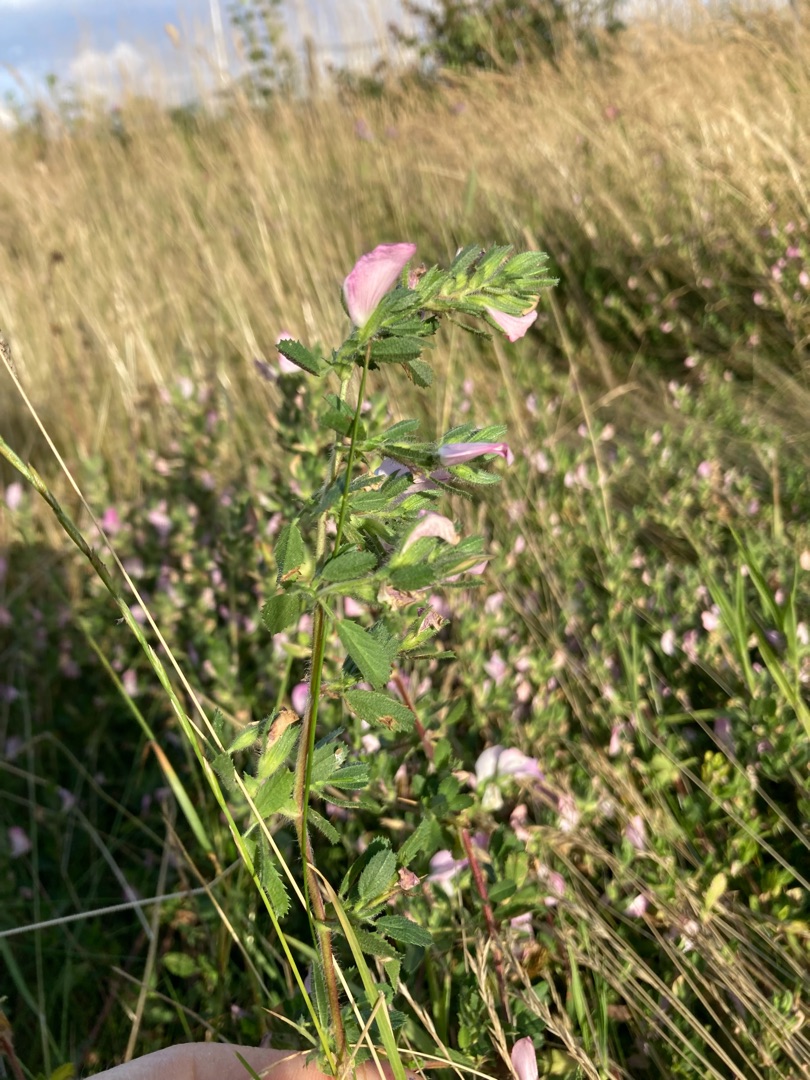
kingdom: Plantae
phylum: Tracheophyta
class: Magnoliopsida
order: Fabales
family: Fabaceae
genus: Ononis
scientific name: Ononis spinosa
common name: Mark-krageklo
